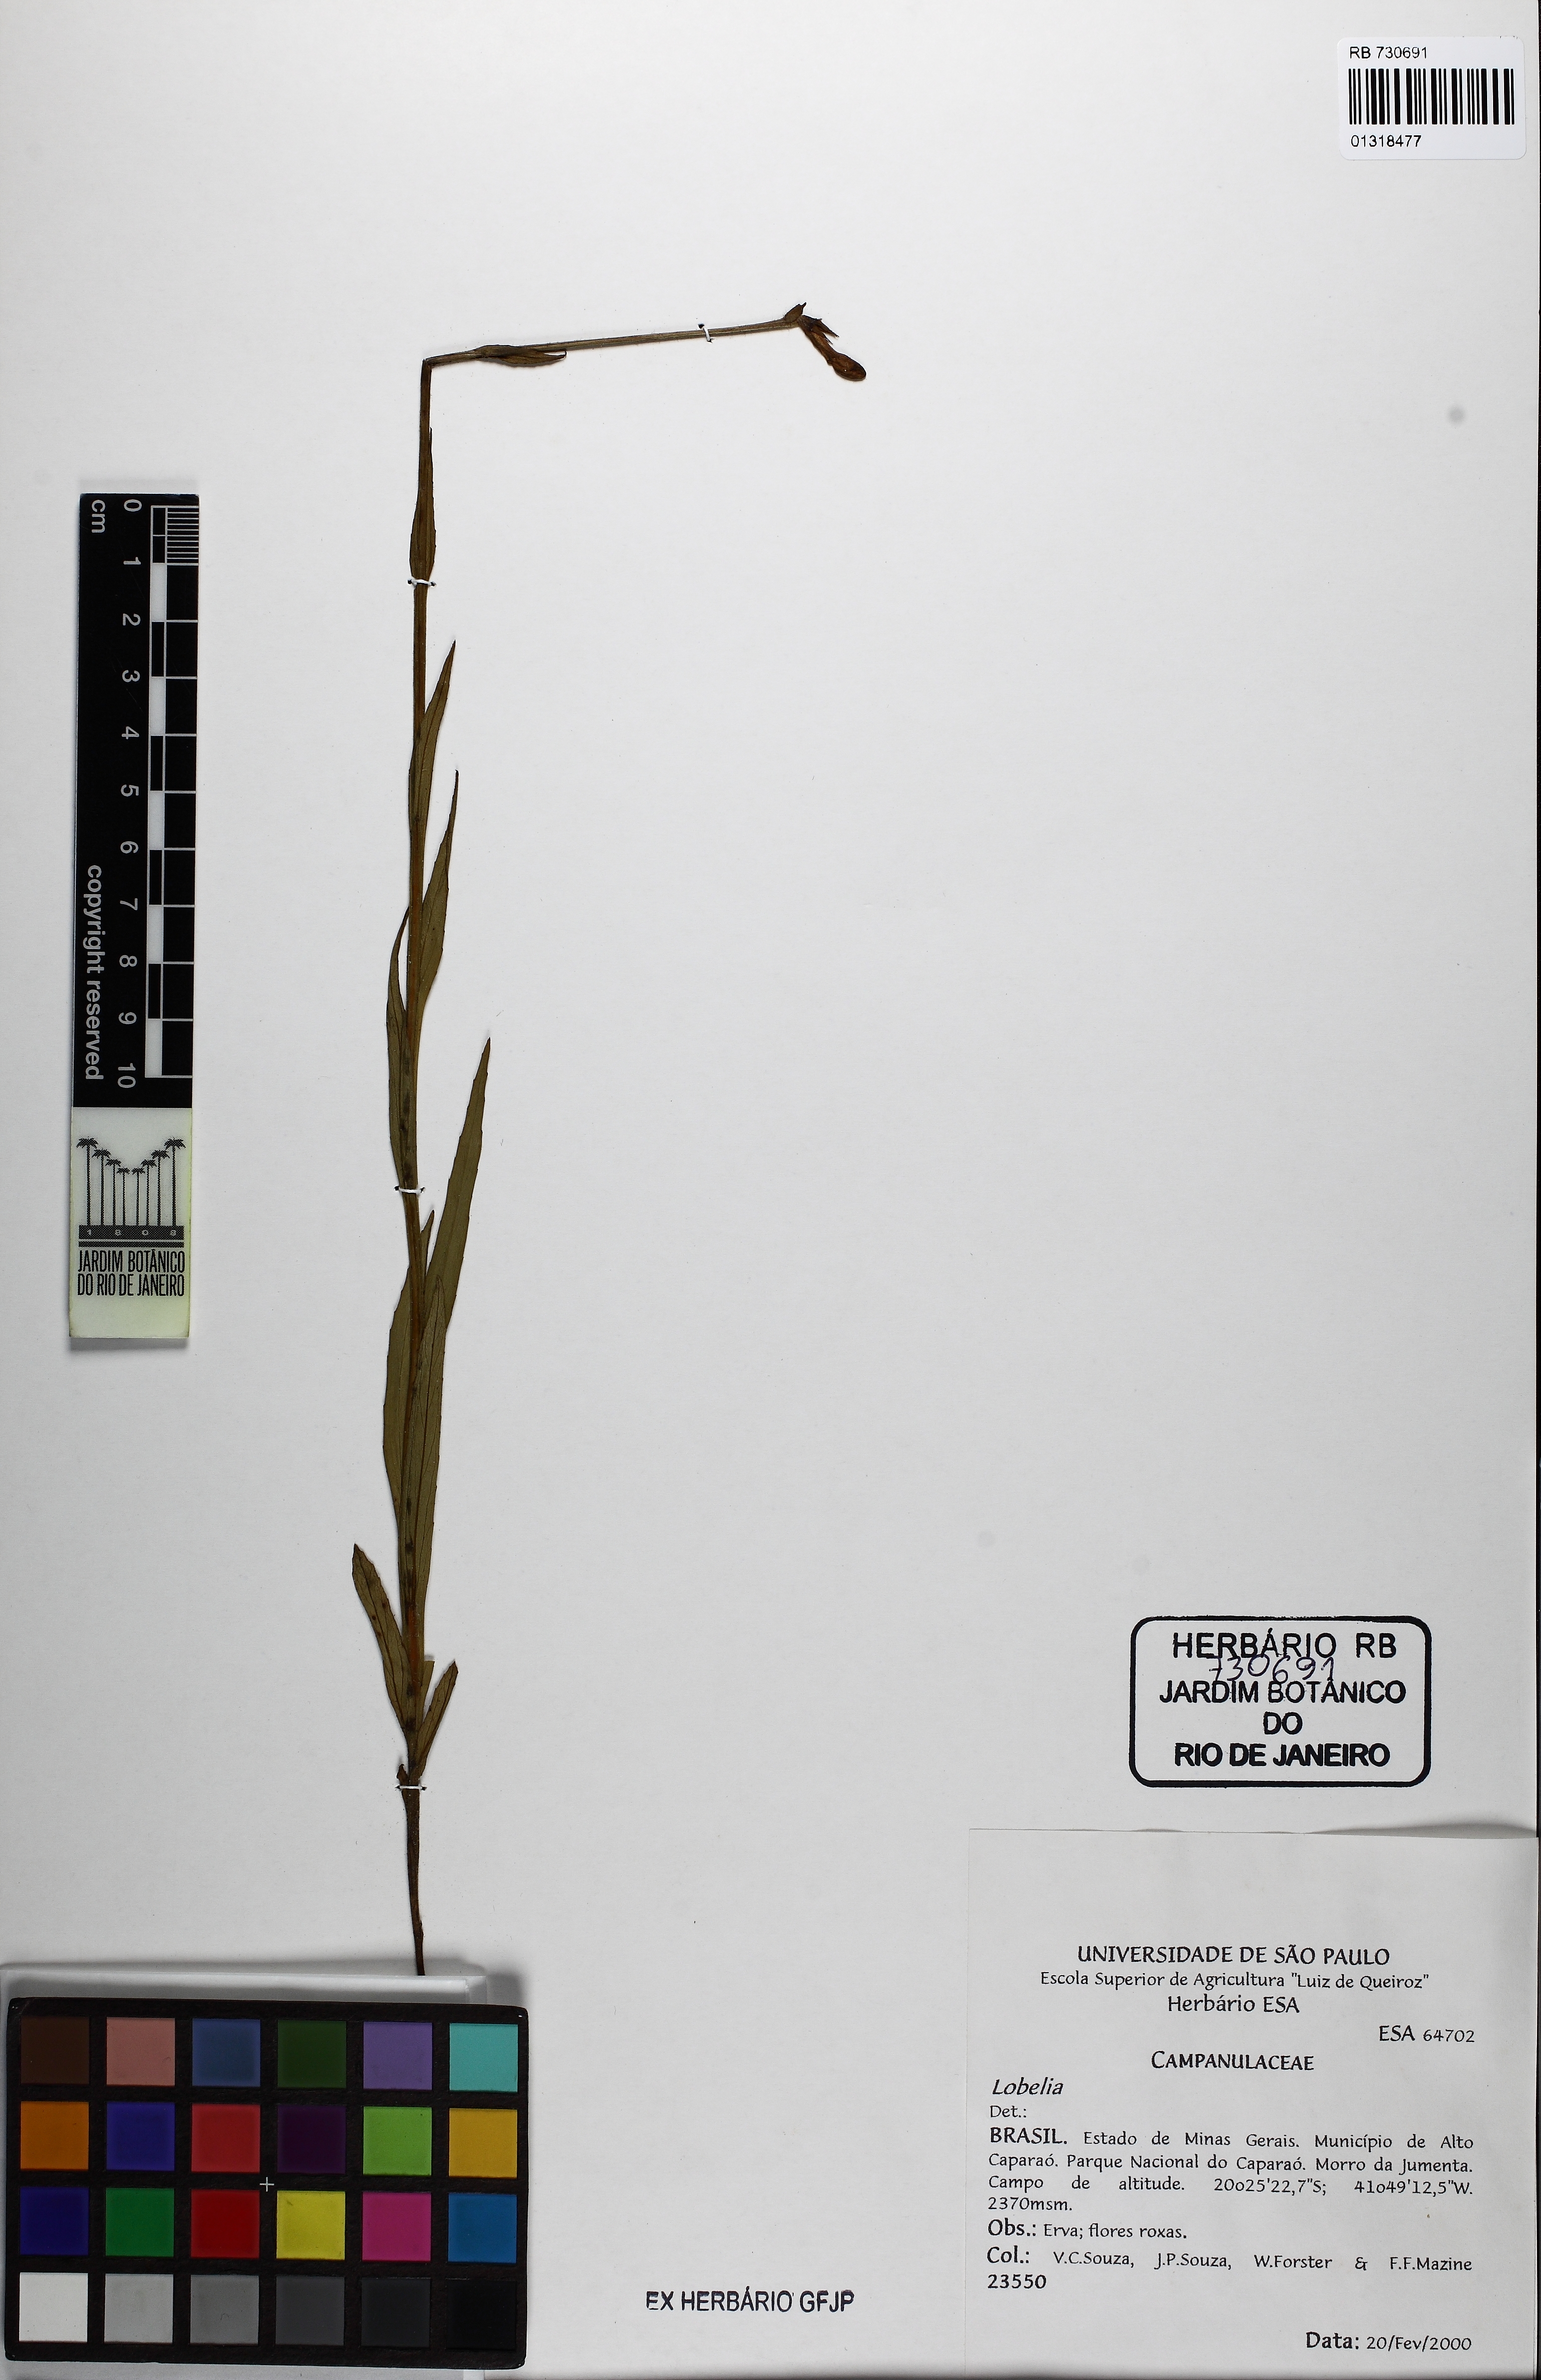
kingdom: Plantae
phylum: Tracheophyta
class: Magnoliopsida
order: Asterales
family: Campanulaceae
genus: Lobelia
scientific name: Lobelia camporum
